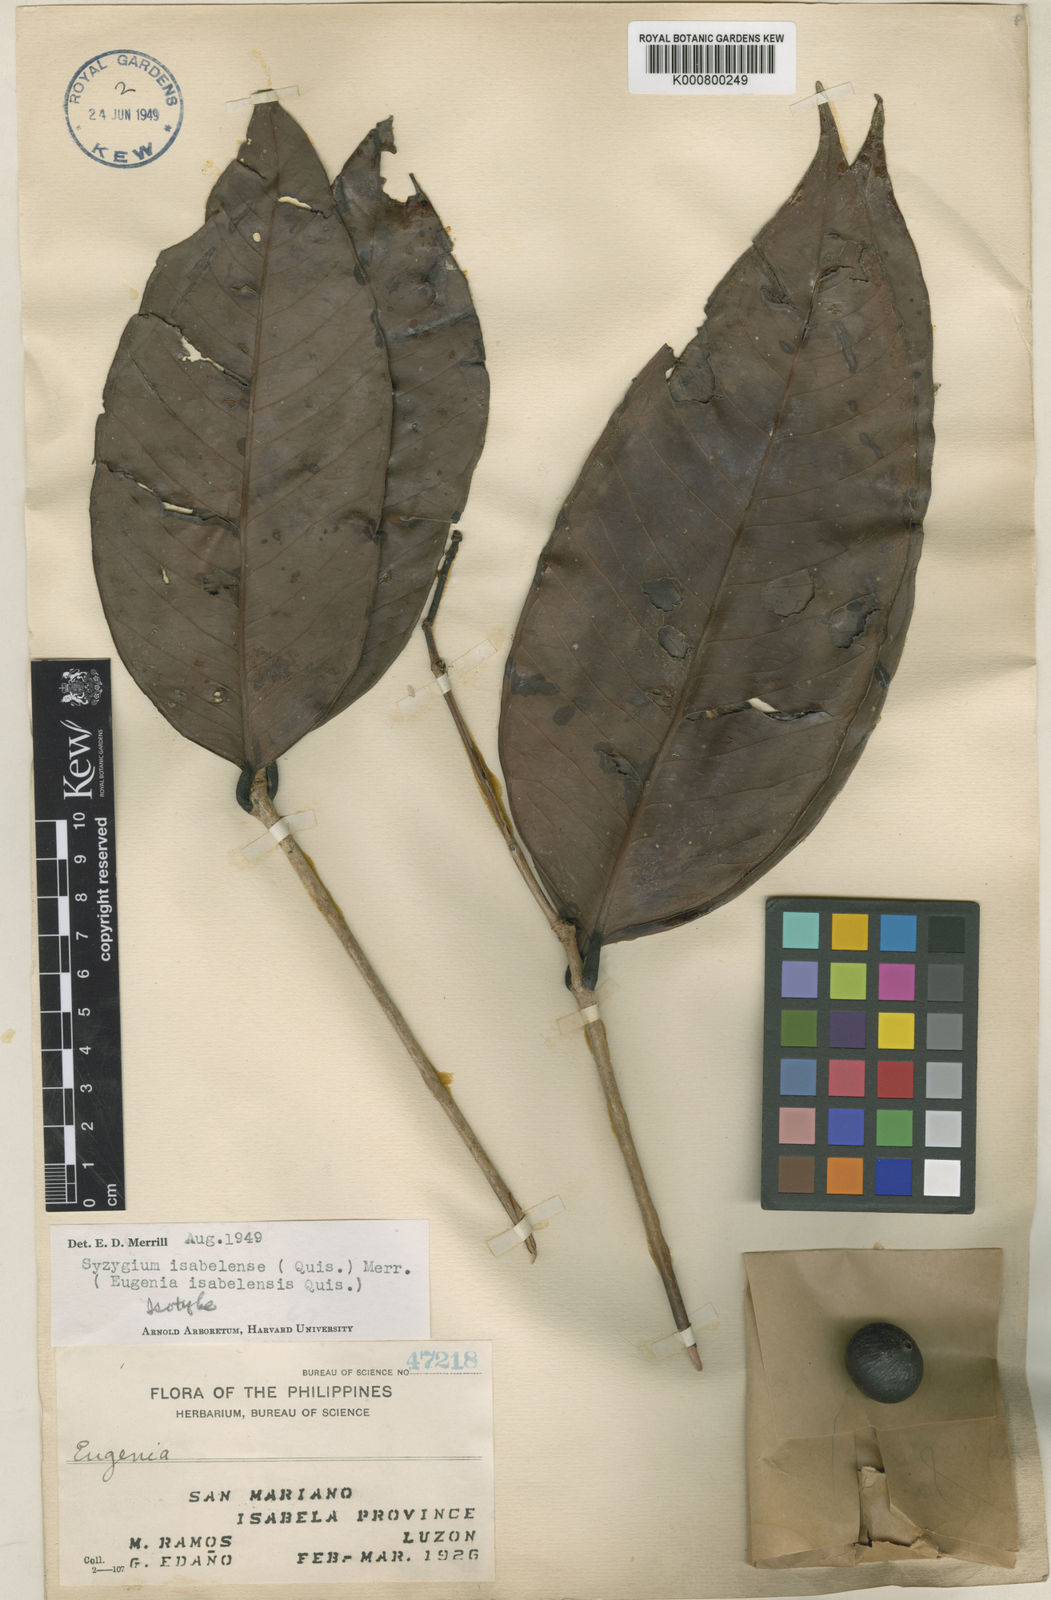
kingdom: Plantae
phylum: Tracheophyta
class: Magnoliopsida
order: Myrtales
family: Myrtaceae
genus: Syzygium
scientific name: Syzygium irosinense
